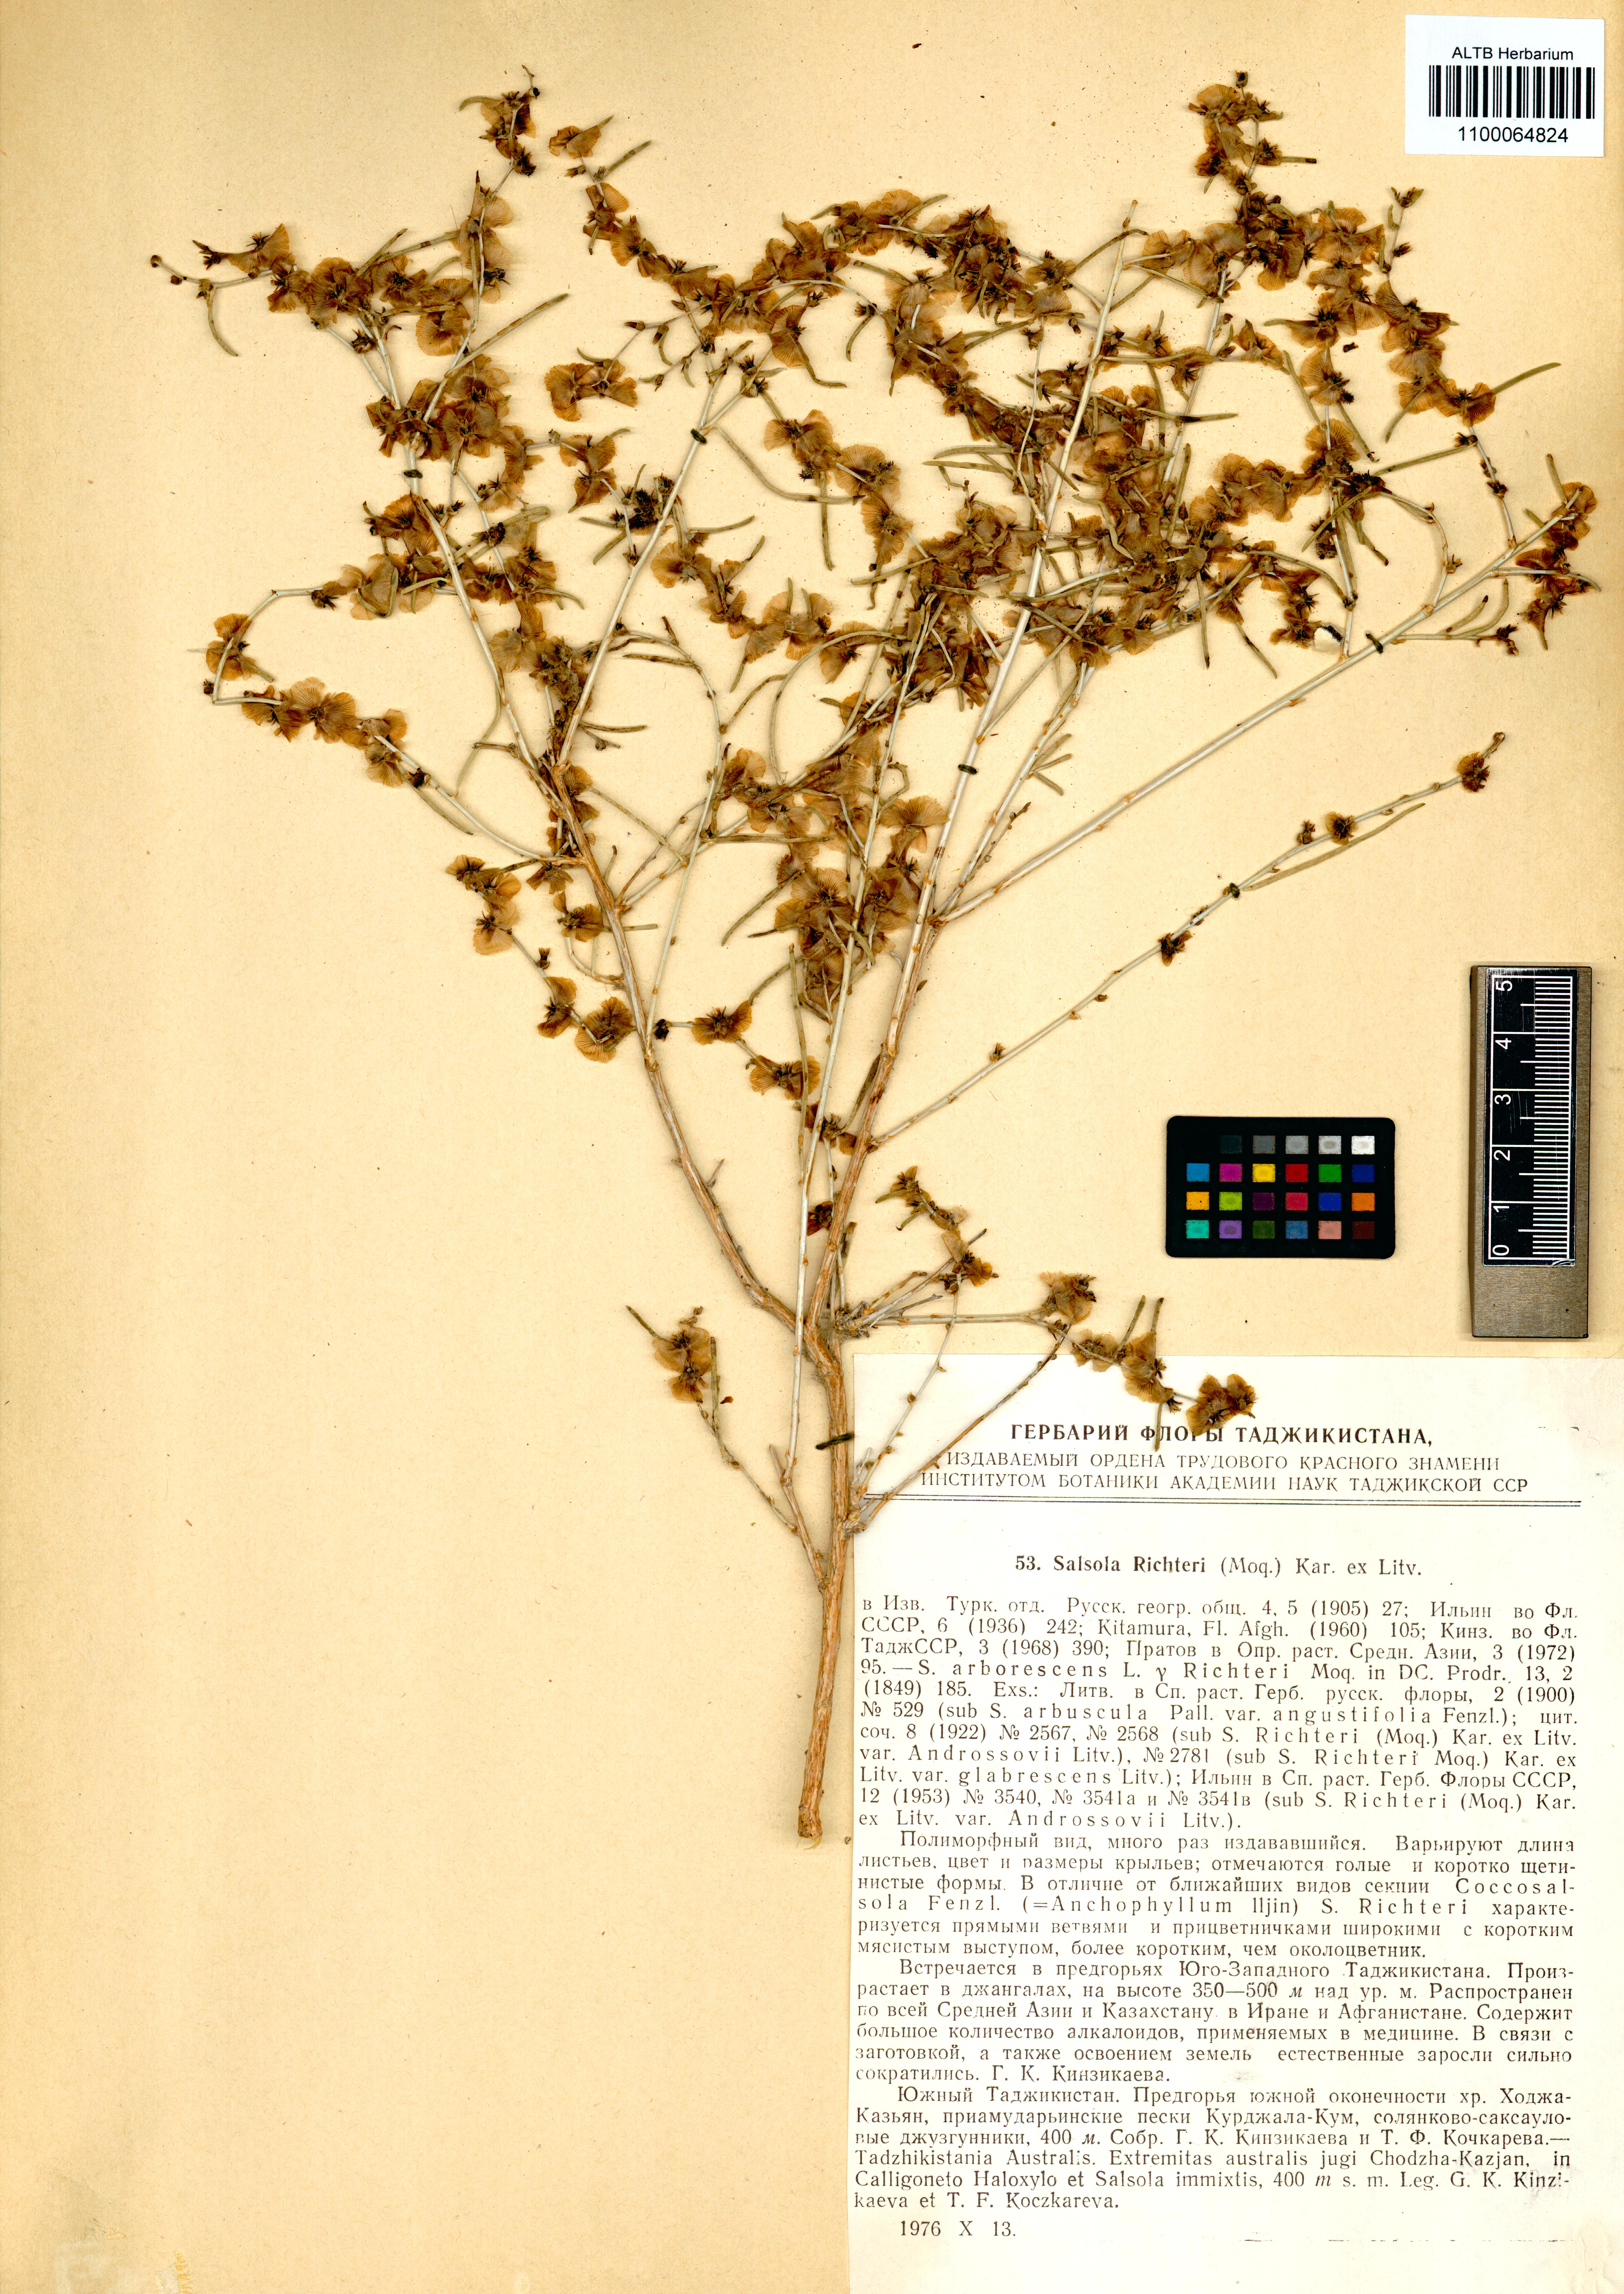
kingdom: Plantae
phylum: Tracheophyta
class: Magnoliopsida
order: Caryophyllales
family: Amaranthaceae
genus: Xylosalsola
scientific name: Xylosalsola richteri
